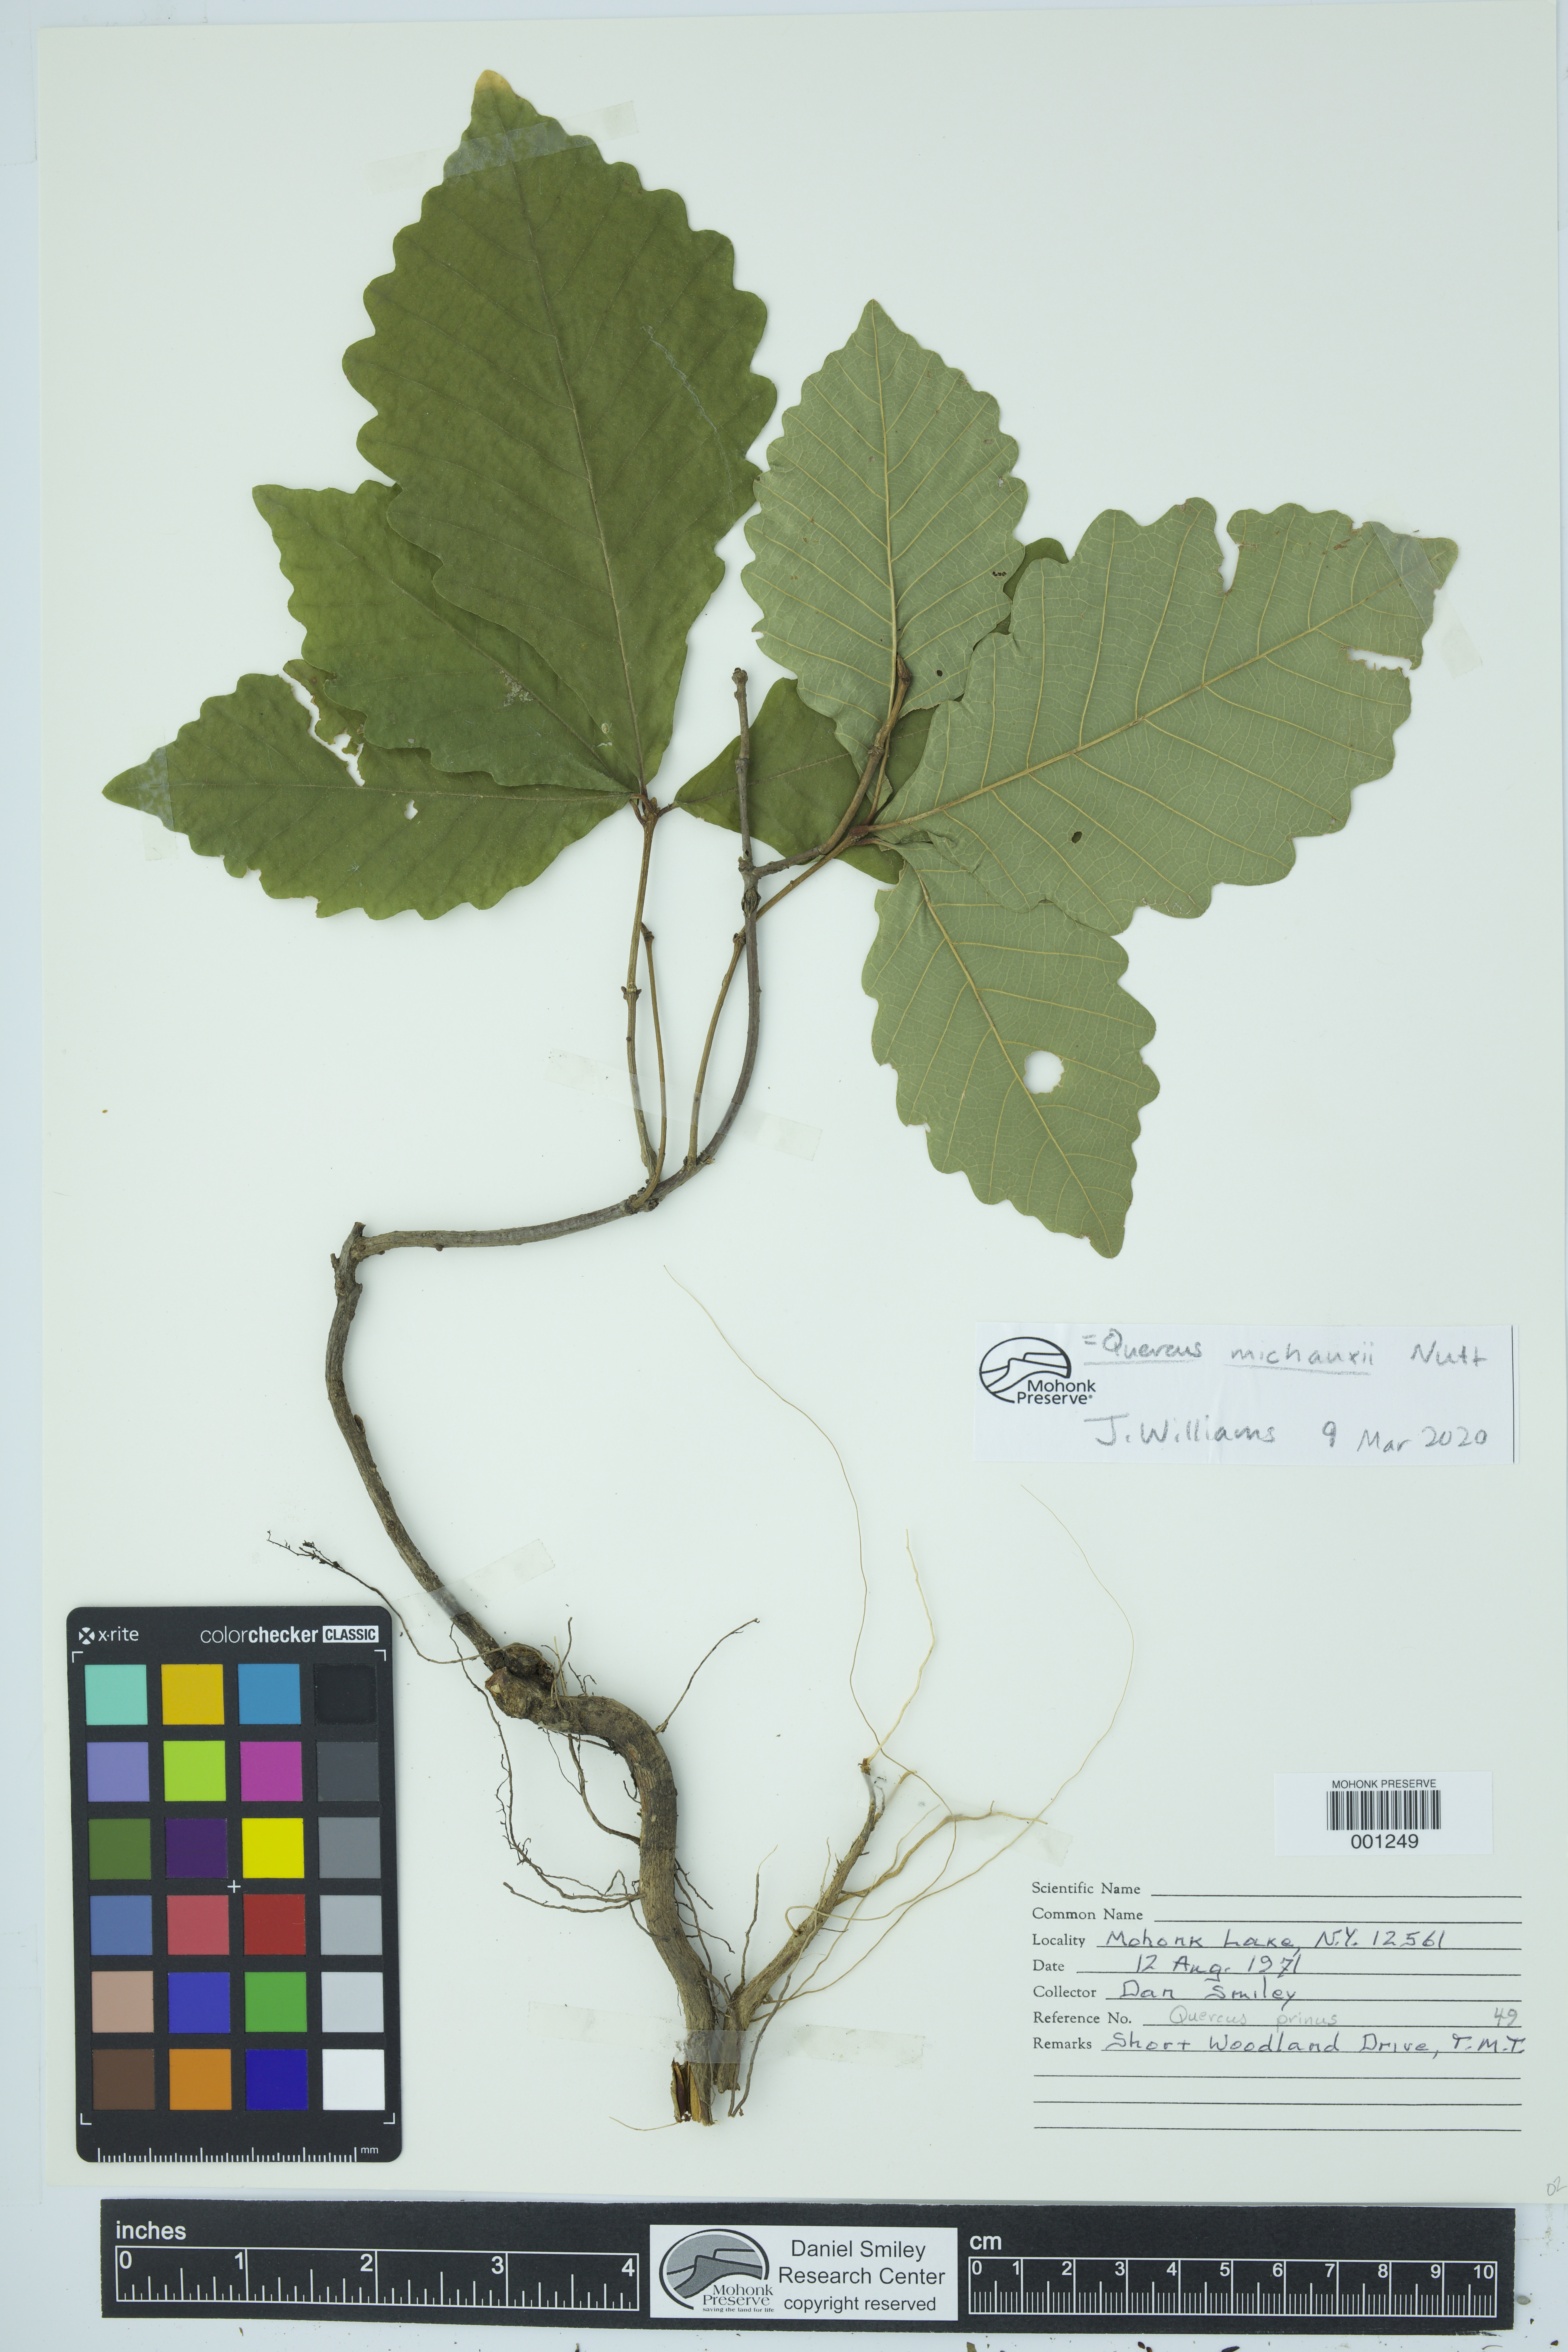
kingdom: Plantae
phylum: Tracheophyta
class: Magnoliopsida
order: Fagales
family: Fagaceae
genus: Quercus
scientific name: Quercus michauxii
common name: Swamp chestnut oak
